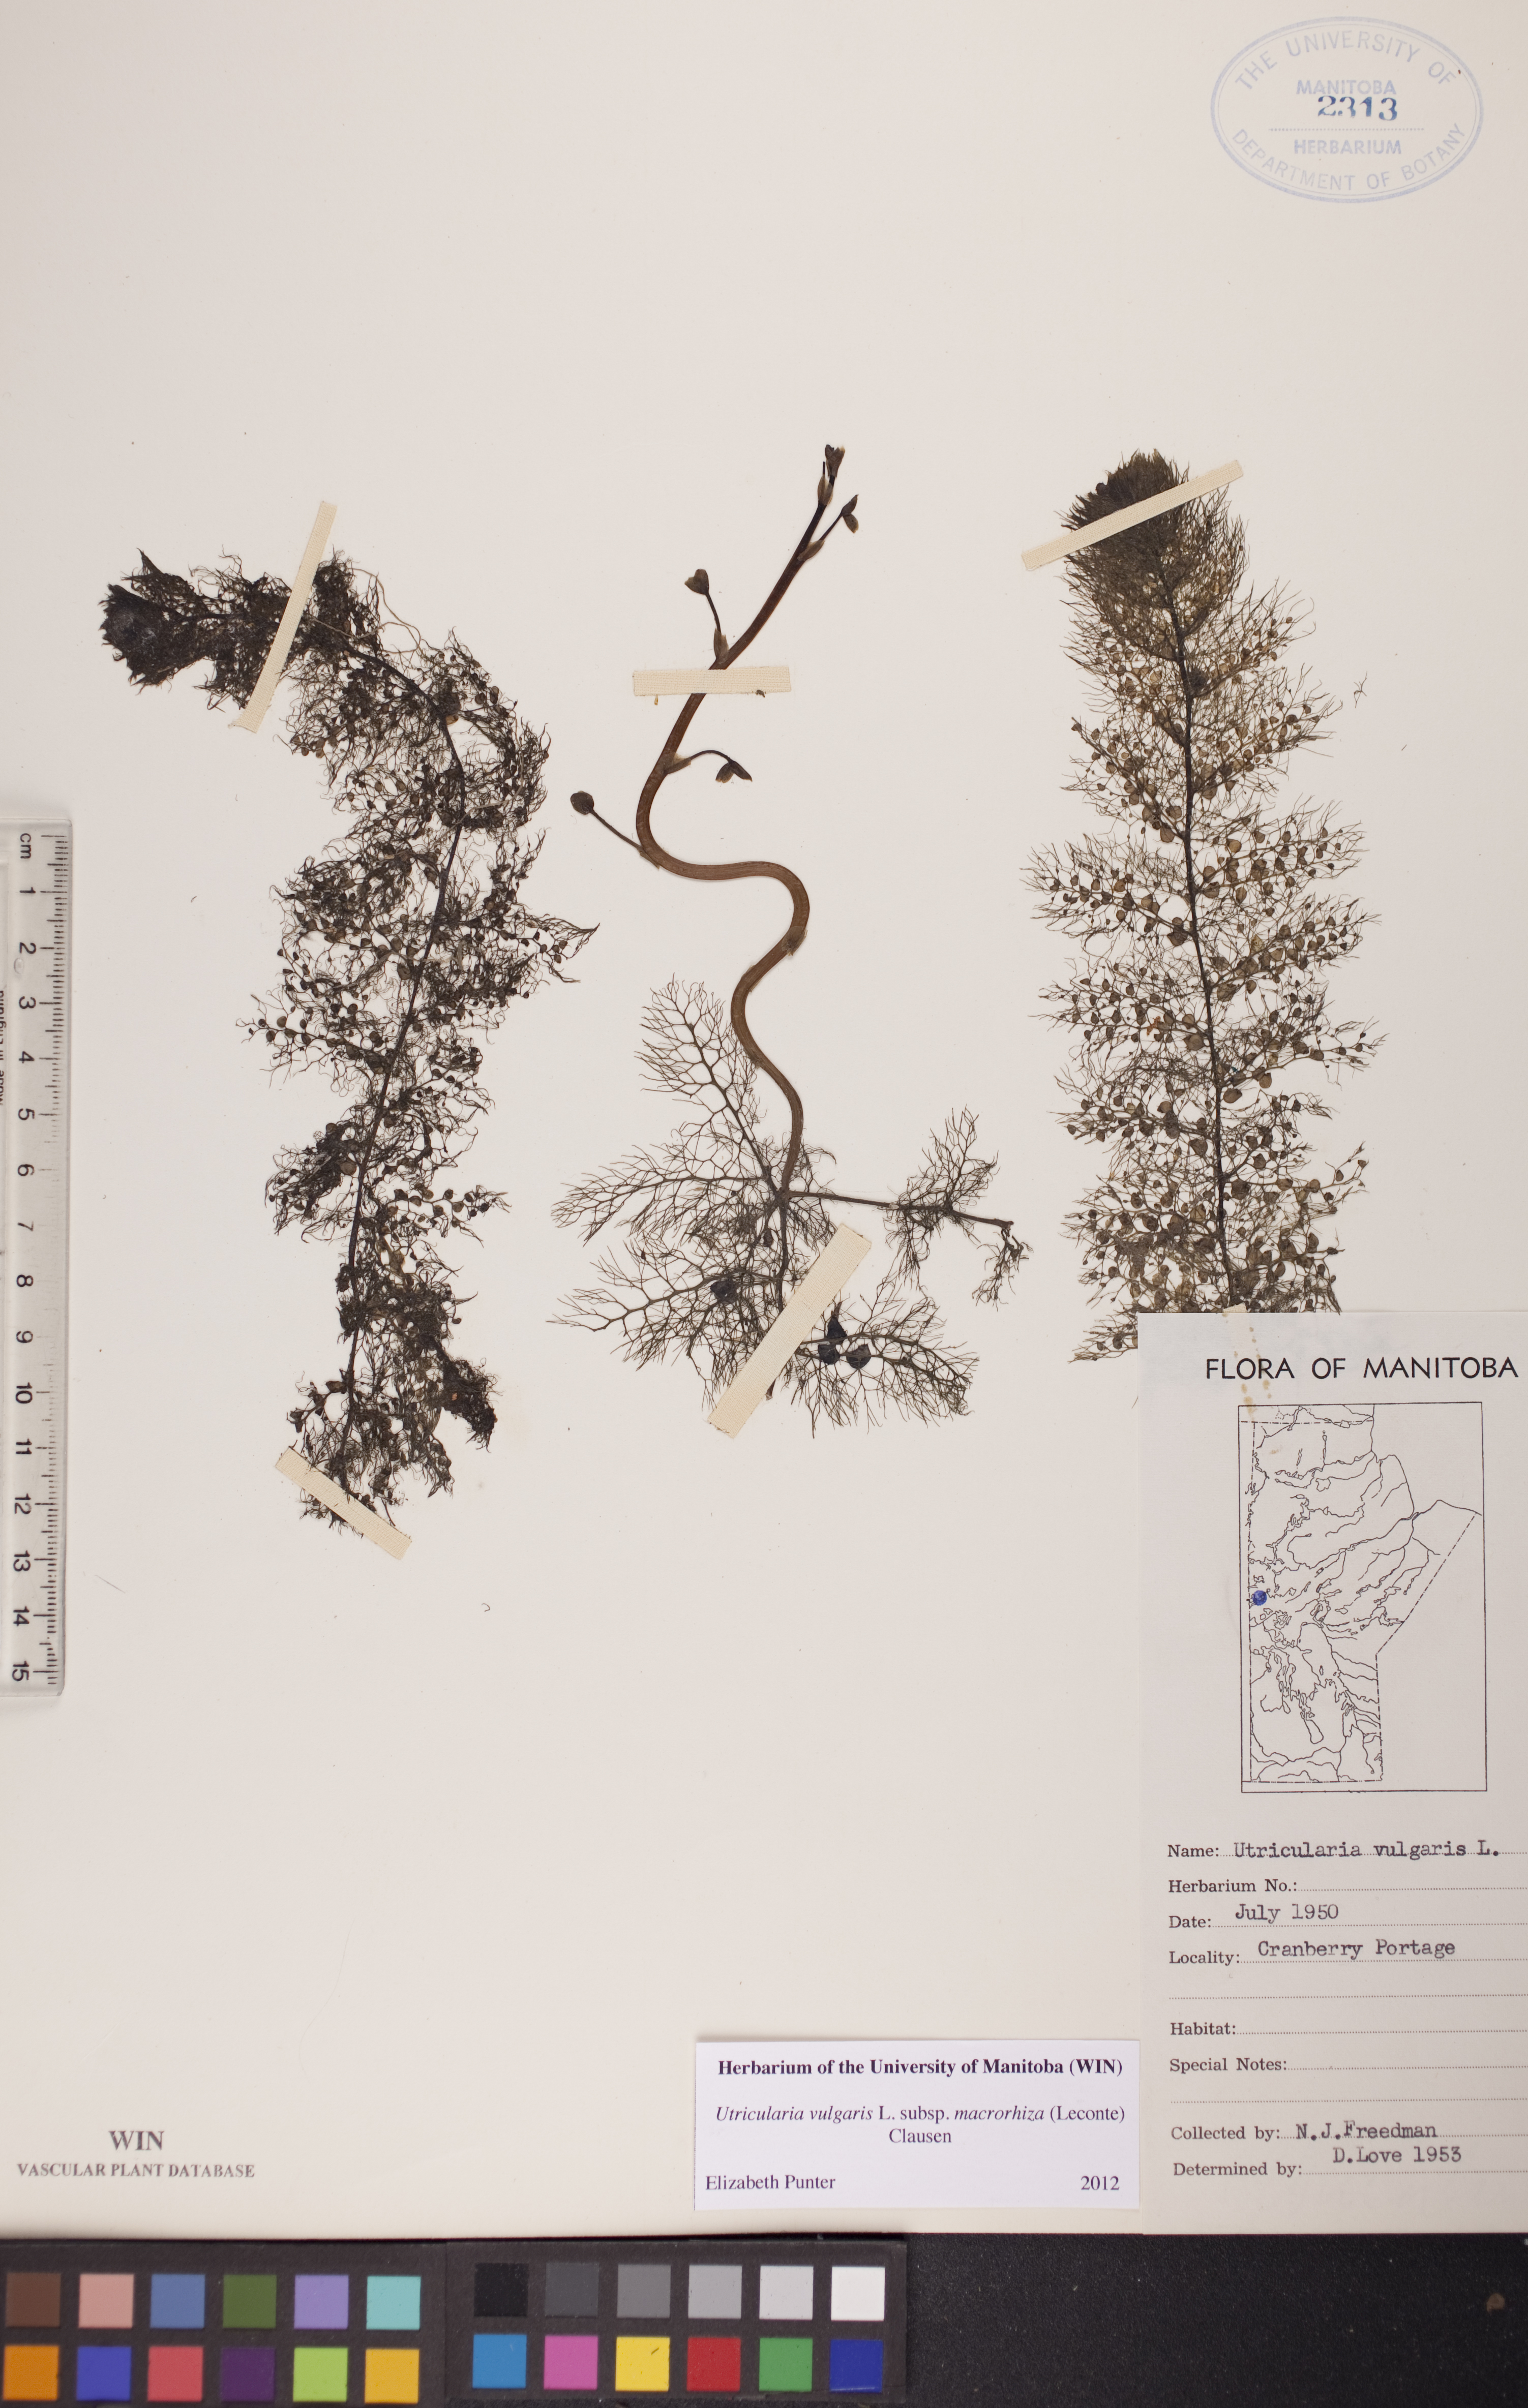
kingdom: Plantae
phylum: Tracheophyta
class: Magnoliopsida
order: Lamiales
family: Lentibulariaceae
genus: Utricularia
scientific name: Utricularia macrorhiza
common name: Common bladderwort
